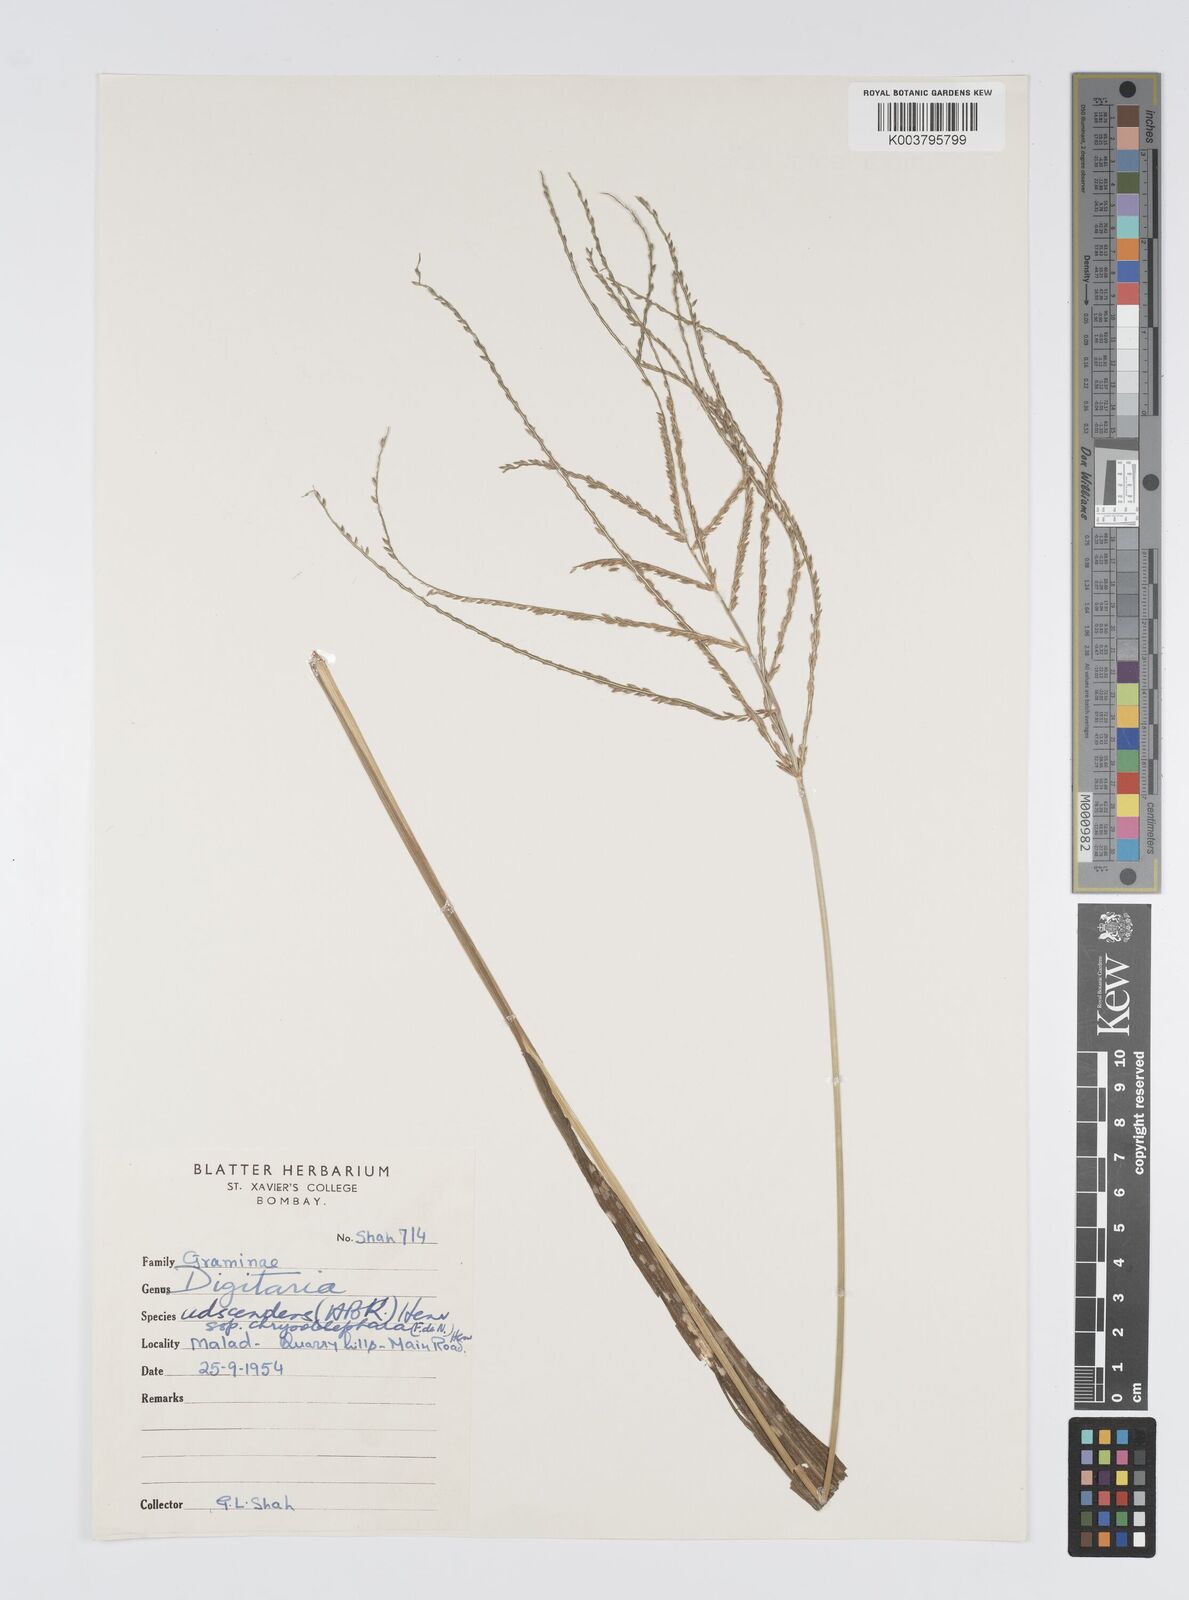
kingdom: Plantae
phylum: Tracheophyta
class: Liliopsida
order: Poales
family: Poaceae
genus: Digitaria
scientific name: Digitaria
